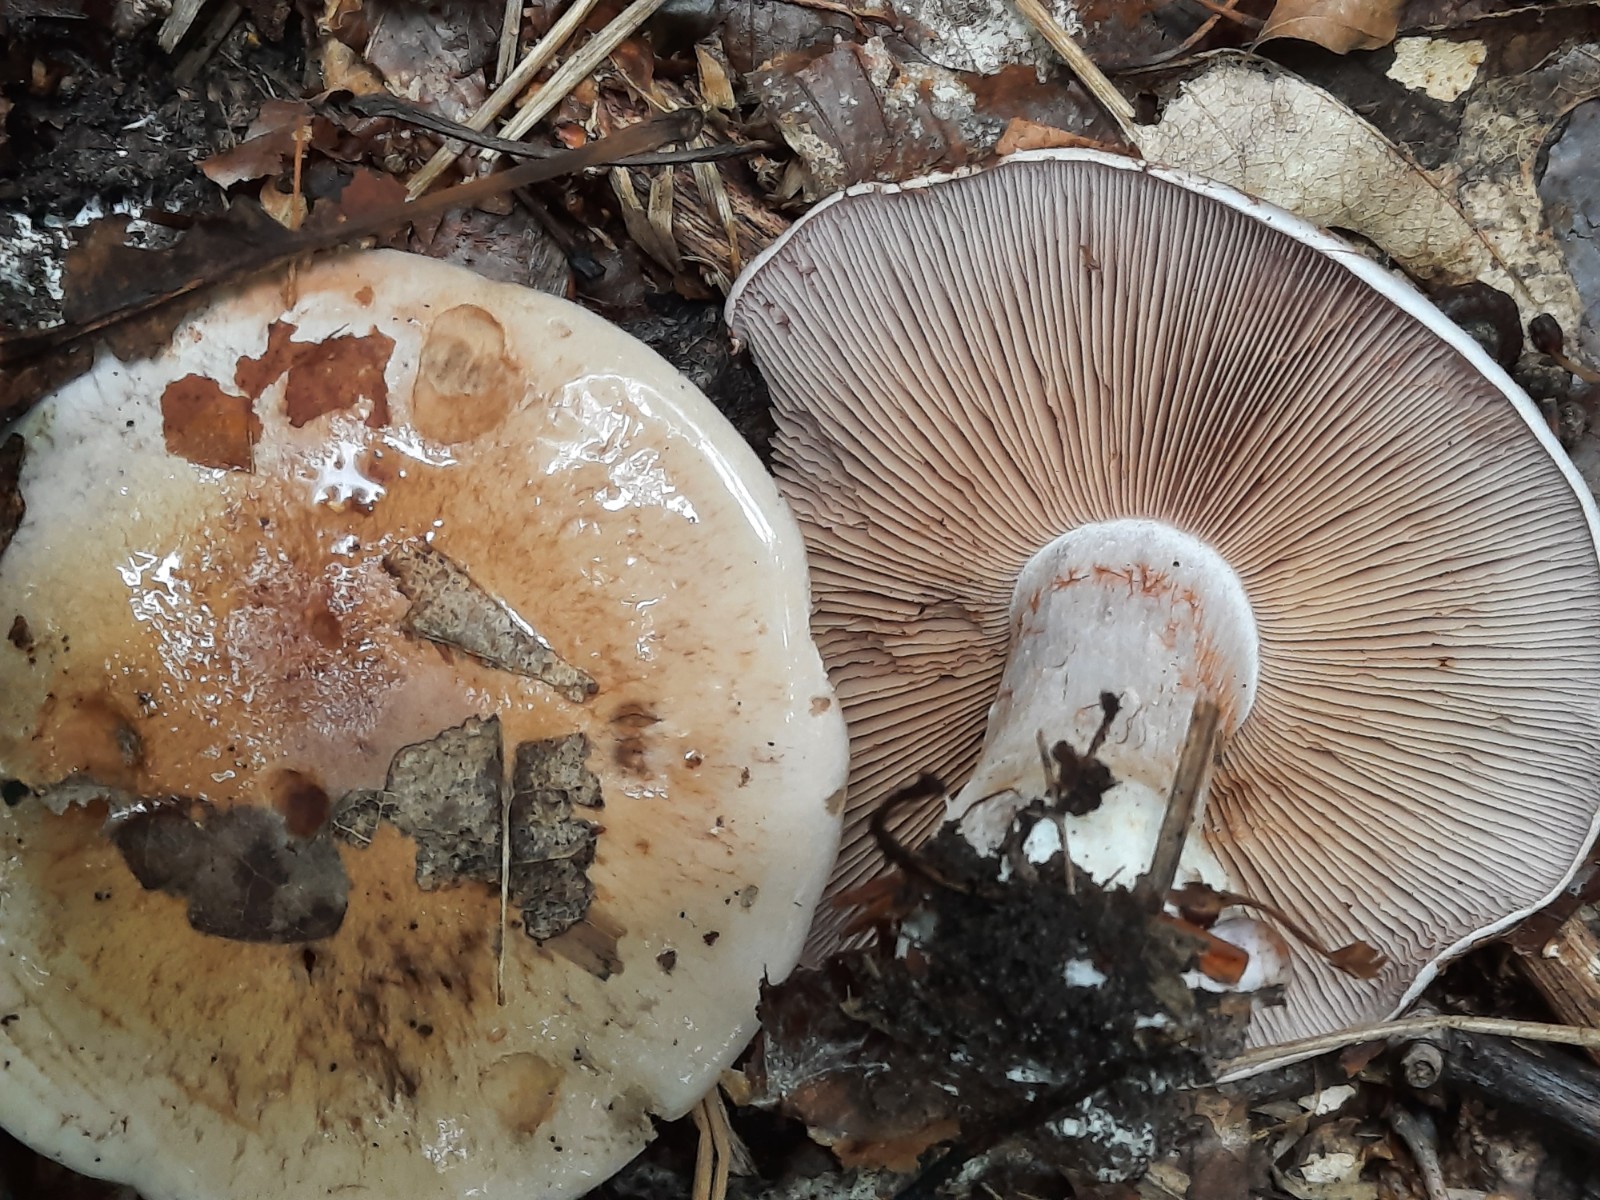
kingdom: Fungi
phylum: Basidiomycota
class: Agaricomycetes
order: Agaricales
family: Cortinariaceae
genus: Cortinarius
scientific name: Cortinarius largus
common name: violetrandet slørhat
